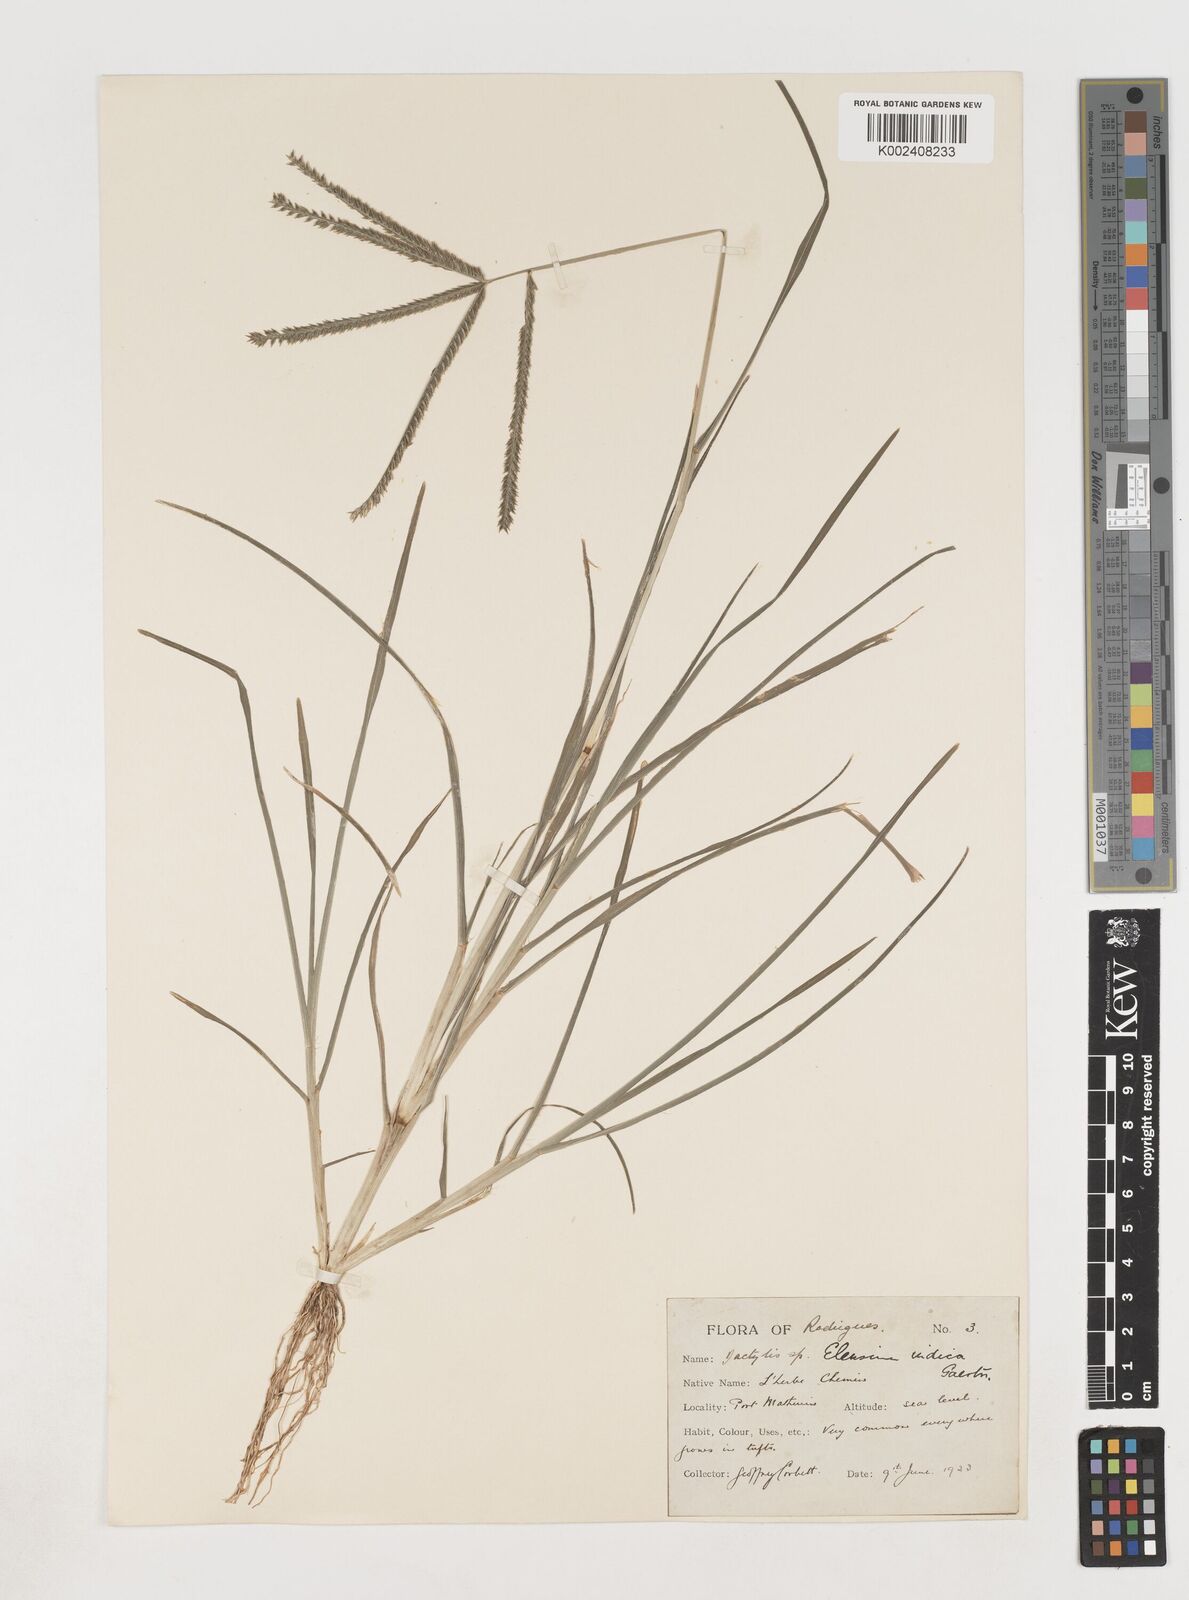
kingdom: Plantae
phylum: Tracheophyta
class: Liliopsida
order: Poales
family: Poaceae
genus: Eleusine
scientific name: Eleusine africana
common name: Wild african finger millet
